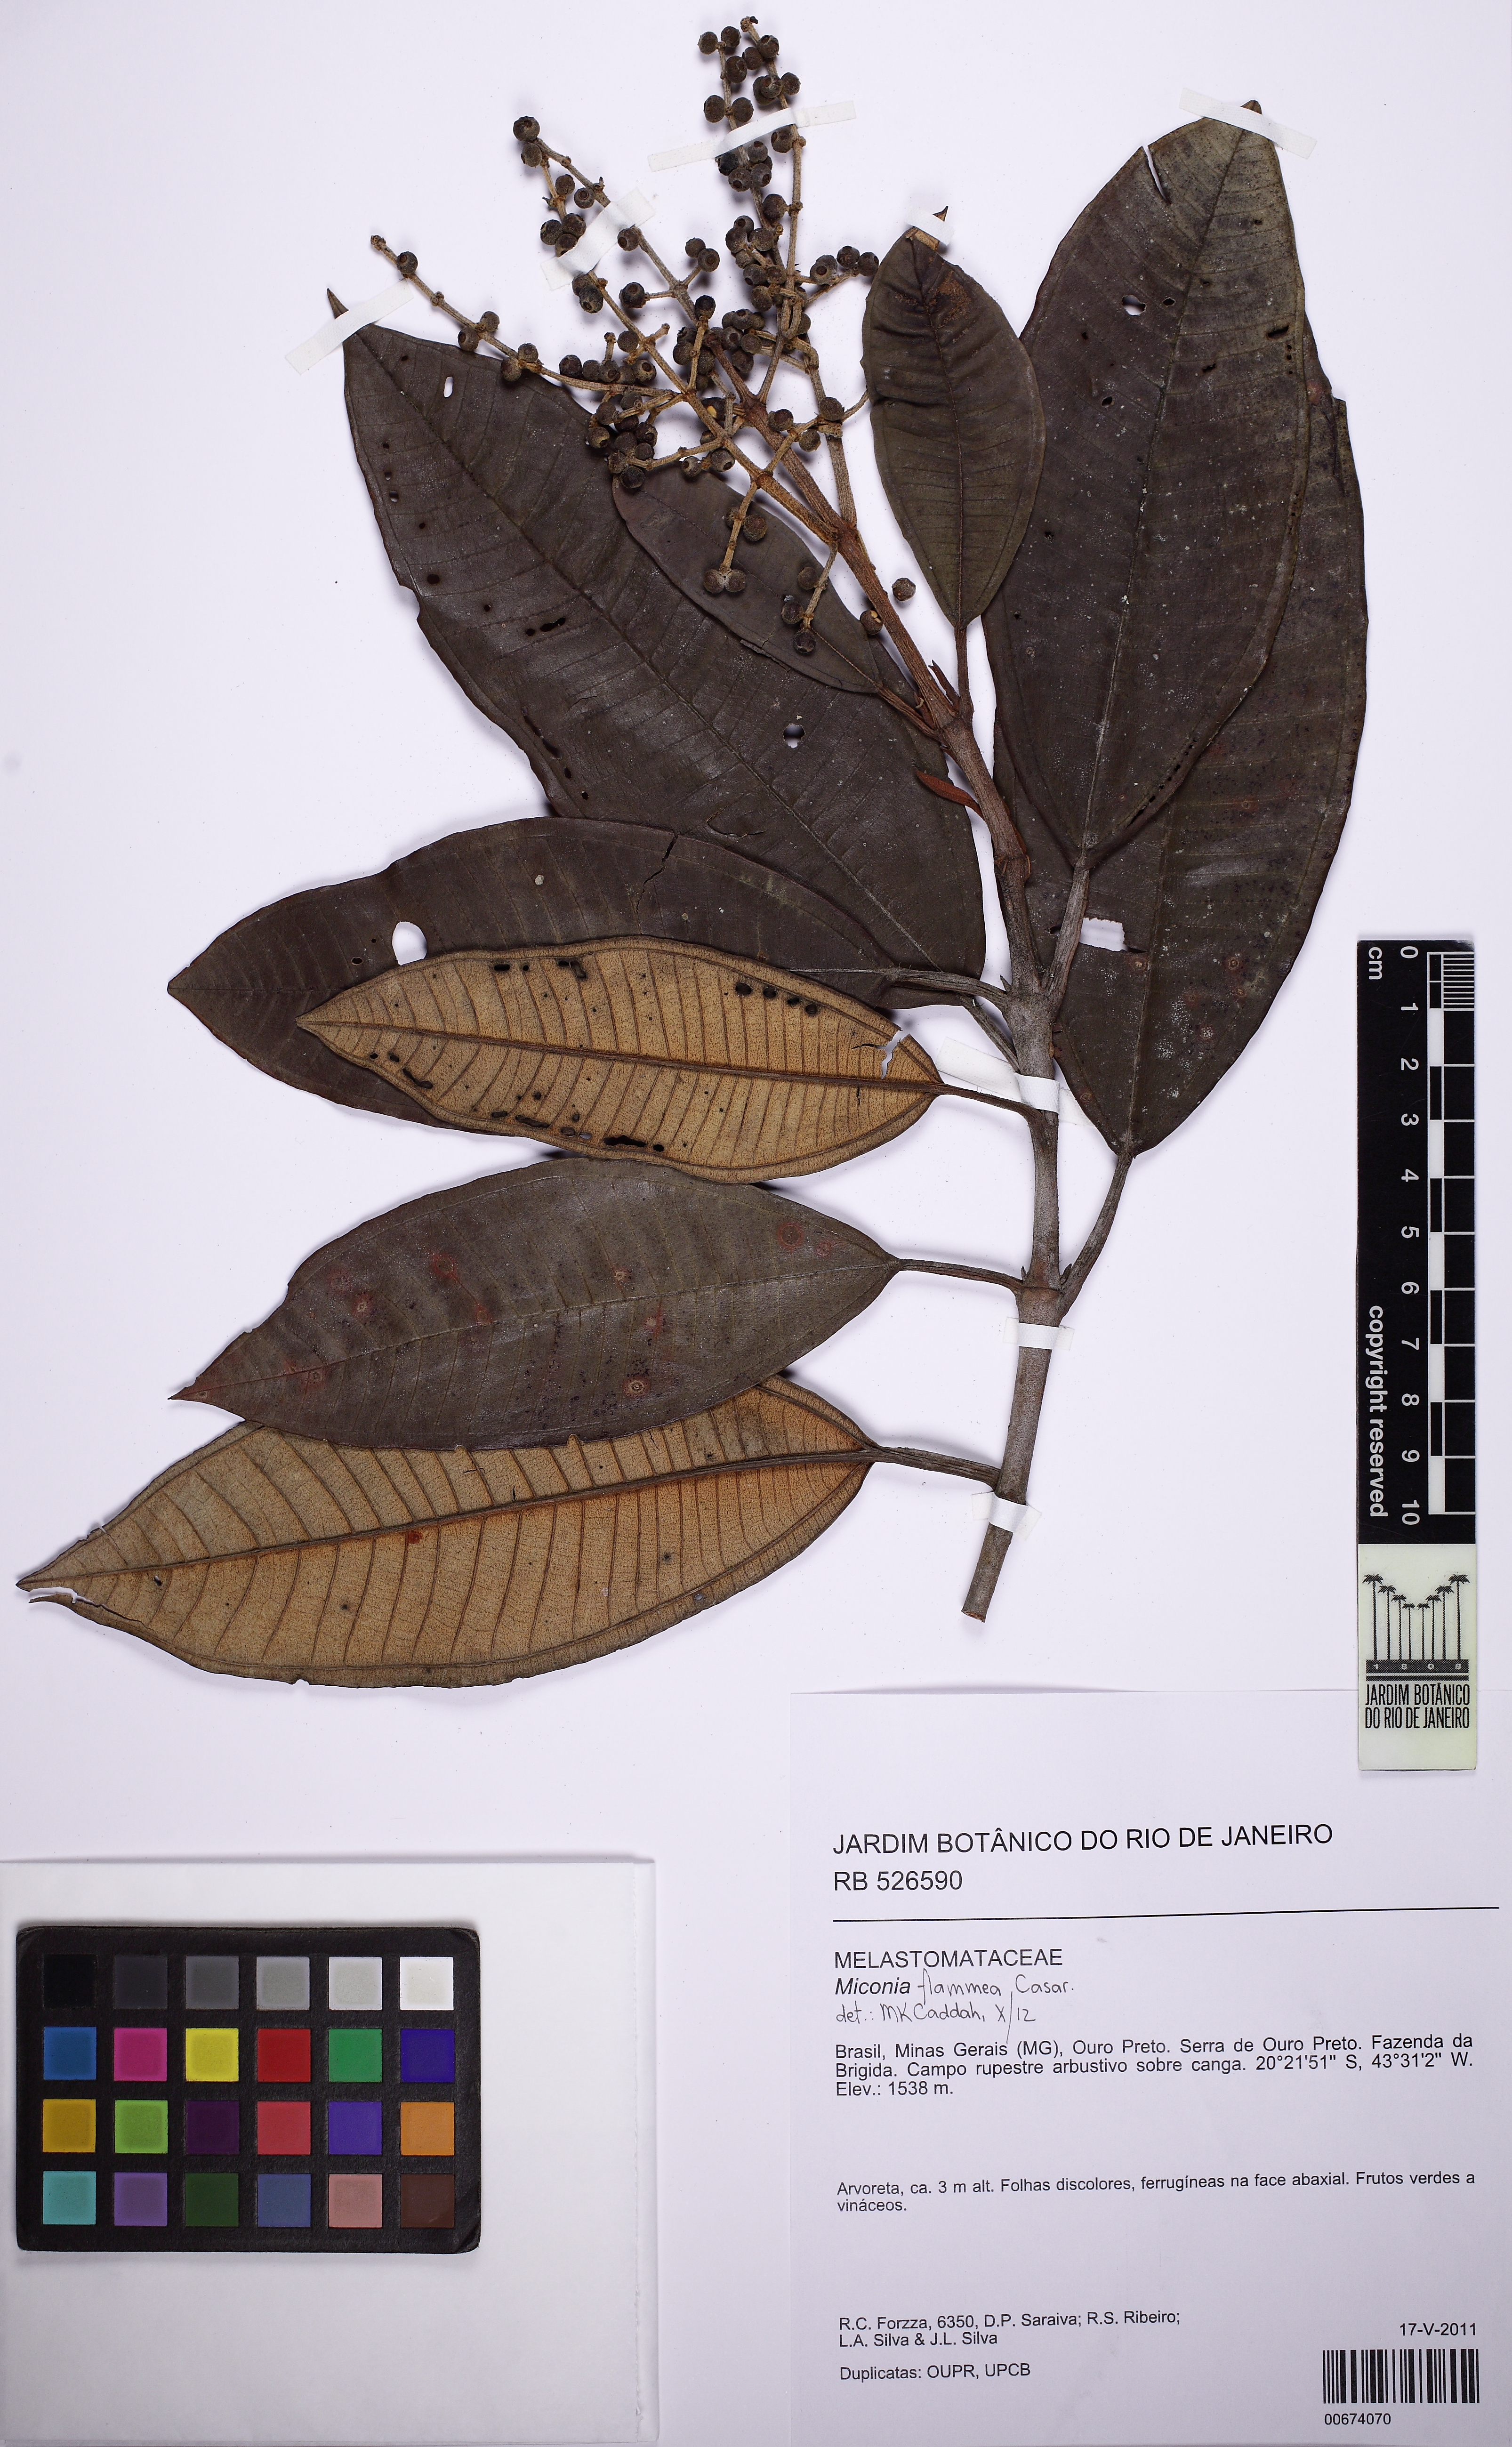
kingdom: Plantae
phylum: Tracheophyta
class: Magnoliopsida
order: Myrtales
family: Melastomataceae
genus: Miconia
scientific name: Miconia flammea
